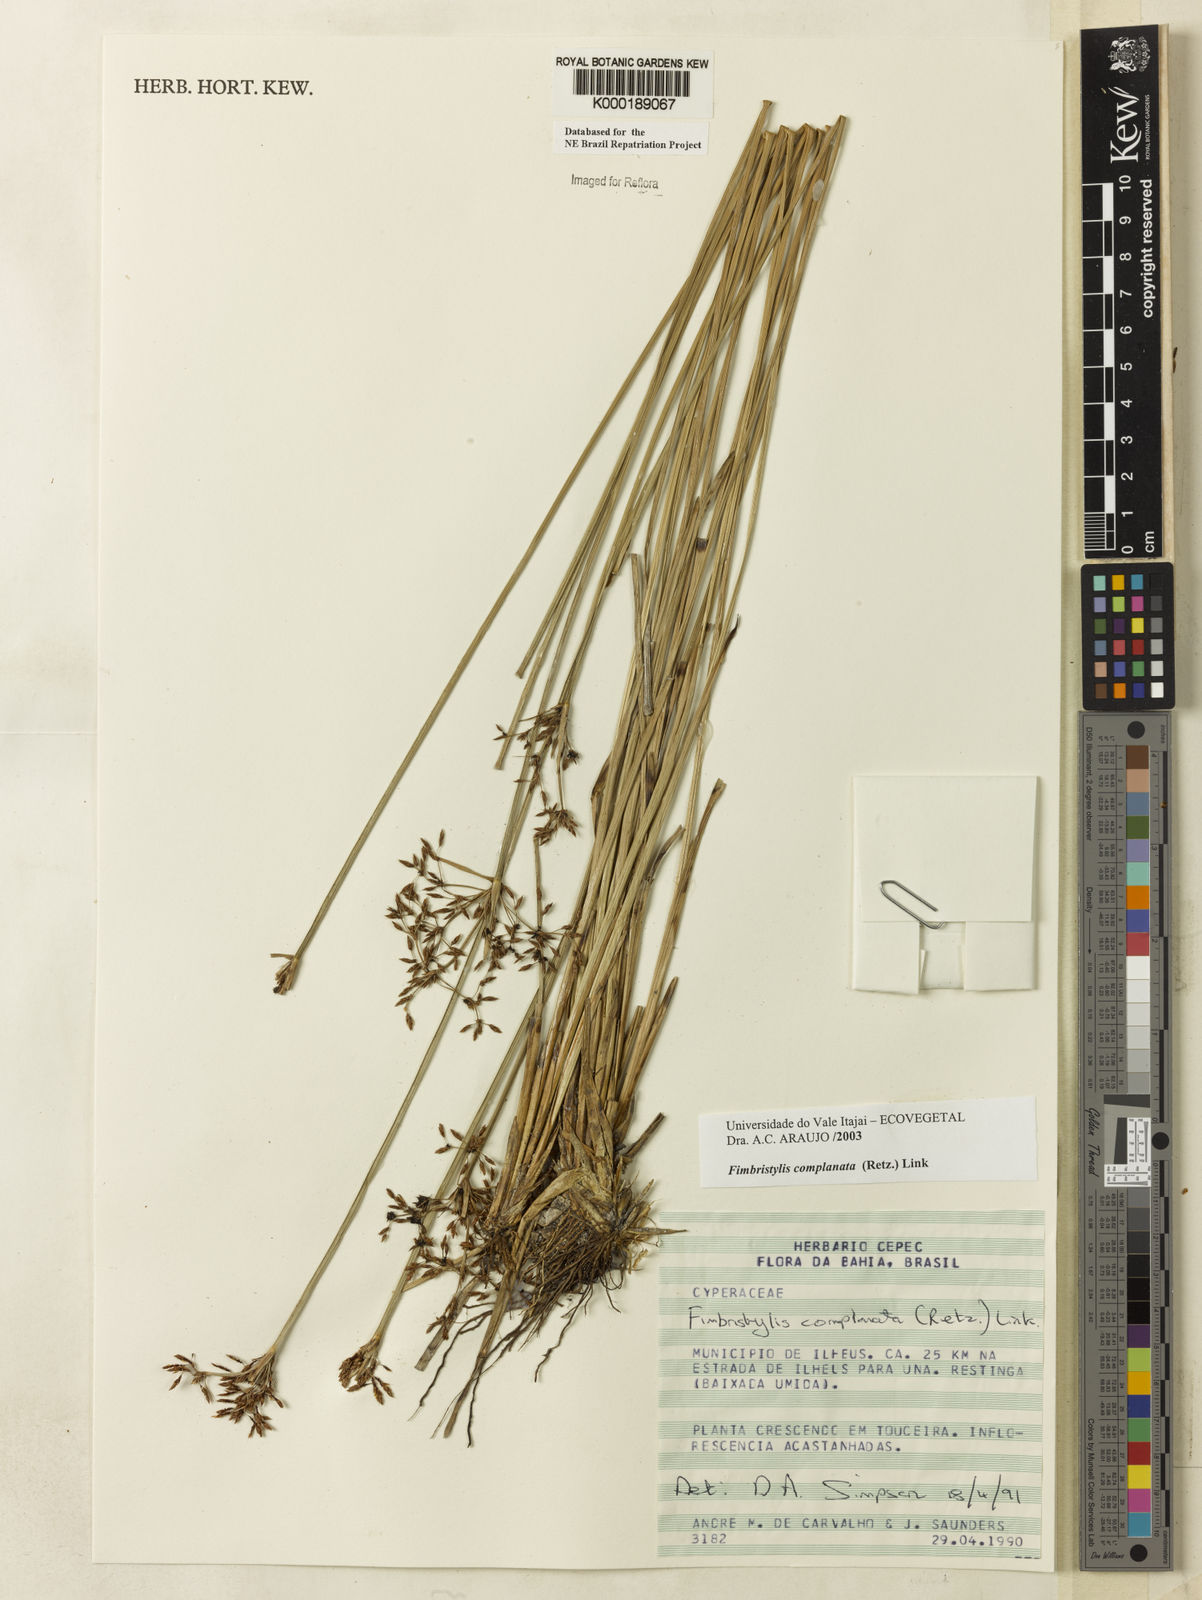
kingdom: Plantae
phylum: Tracheophyta
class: Liliopsida
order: Poales
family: Cyperaceae
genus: Fimbristylis
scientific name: Fimbristylis complanata
